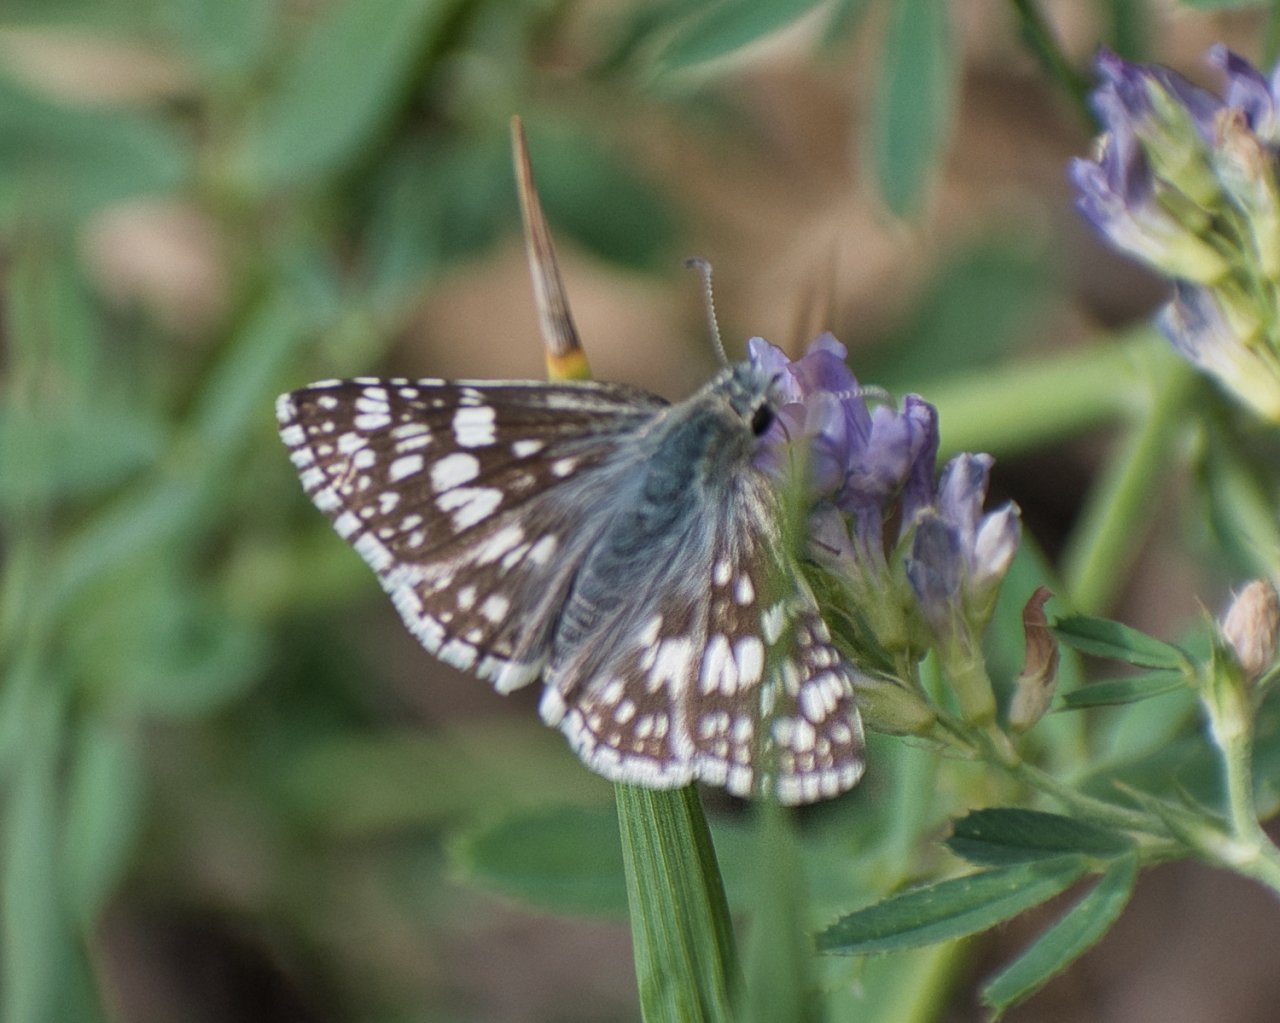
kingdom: Animalia
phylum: Arthropoda
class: Insecta
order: Lepidoptera
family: Hesperiidae
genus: Pyrgus
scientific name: Pyrgus communis
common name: Common Checkered-Skipper
